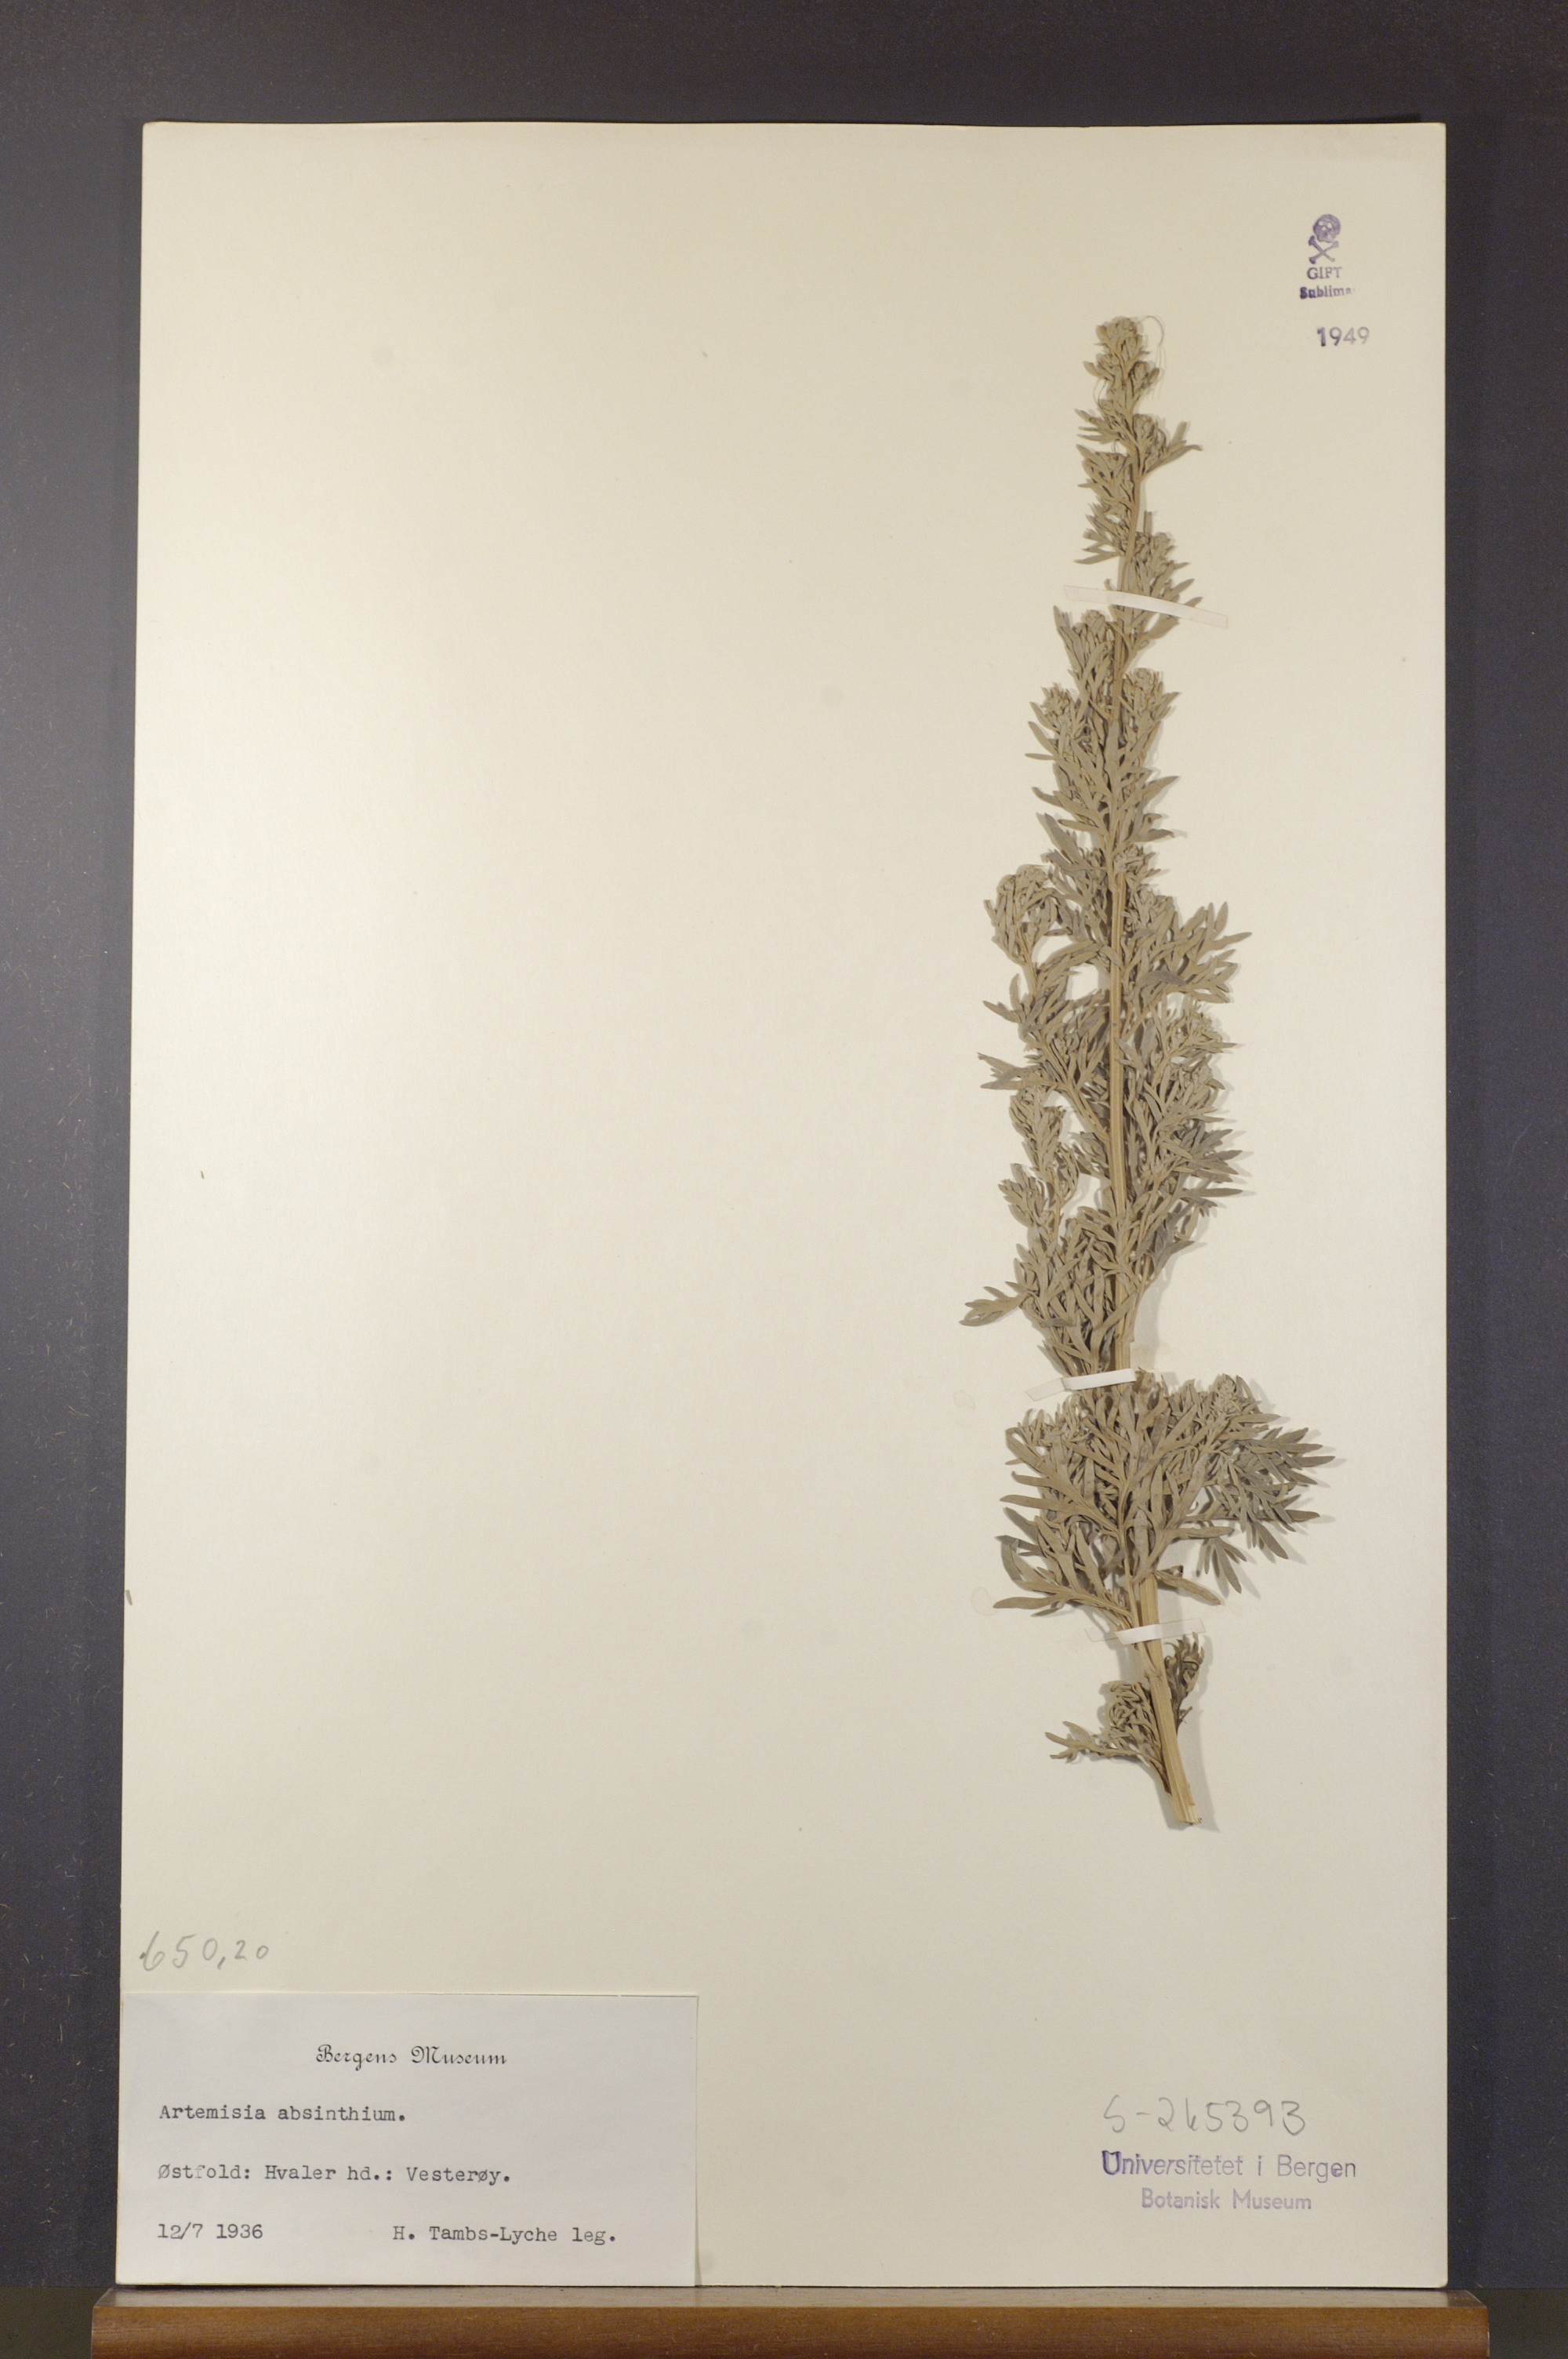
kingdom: Plantae
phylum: Tracheophyta
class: Magnoliopsida
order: Asterales
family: Asteraceae
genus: Artemisia
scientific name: Artemisia absinthium
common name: Wormwood
